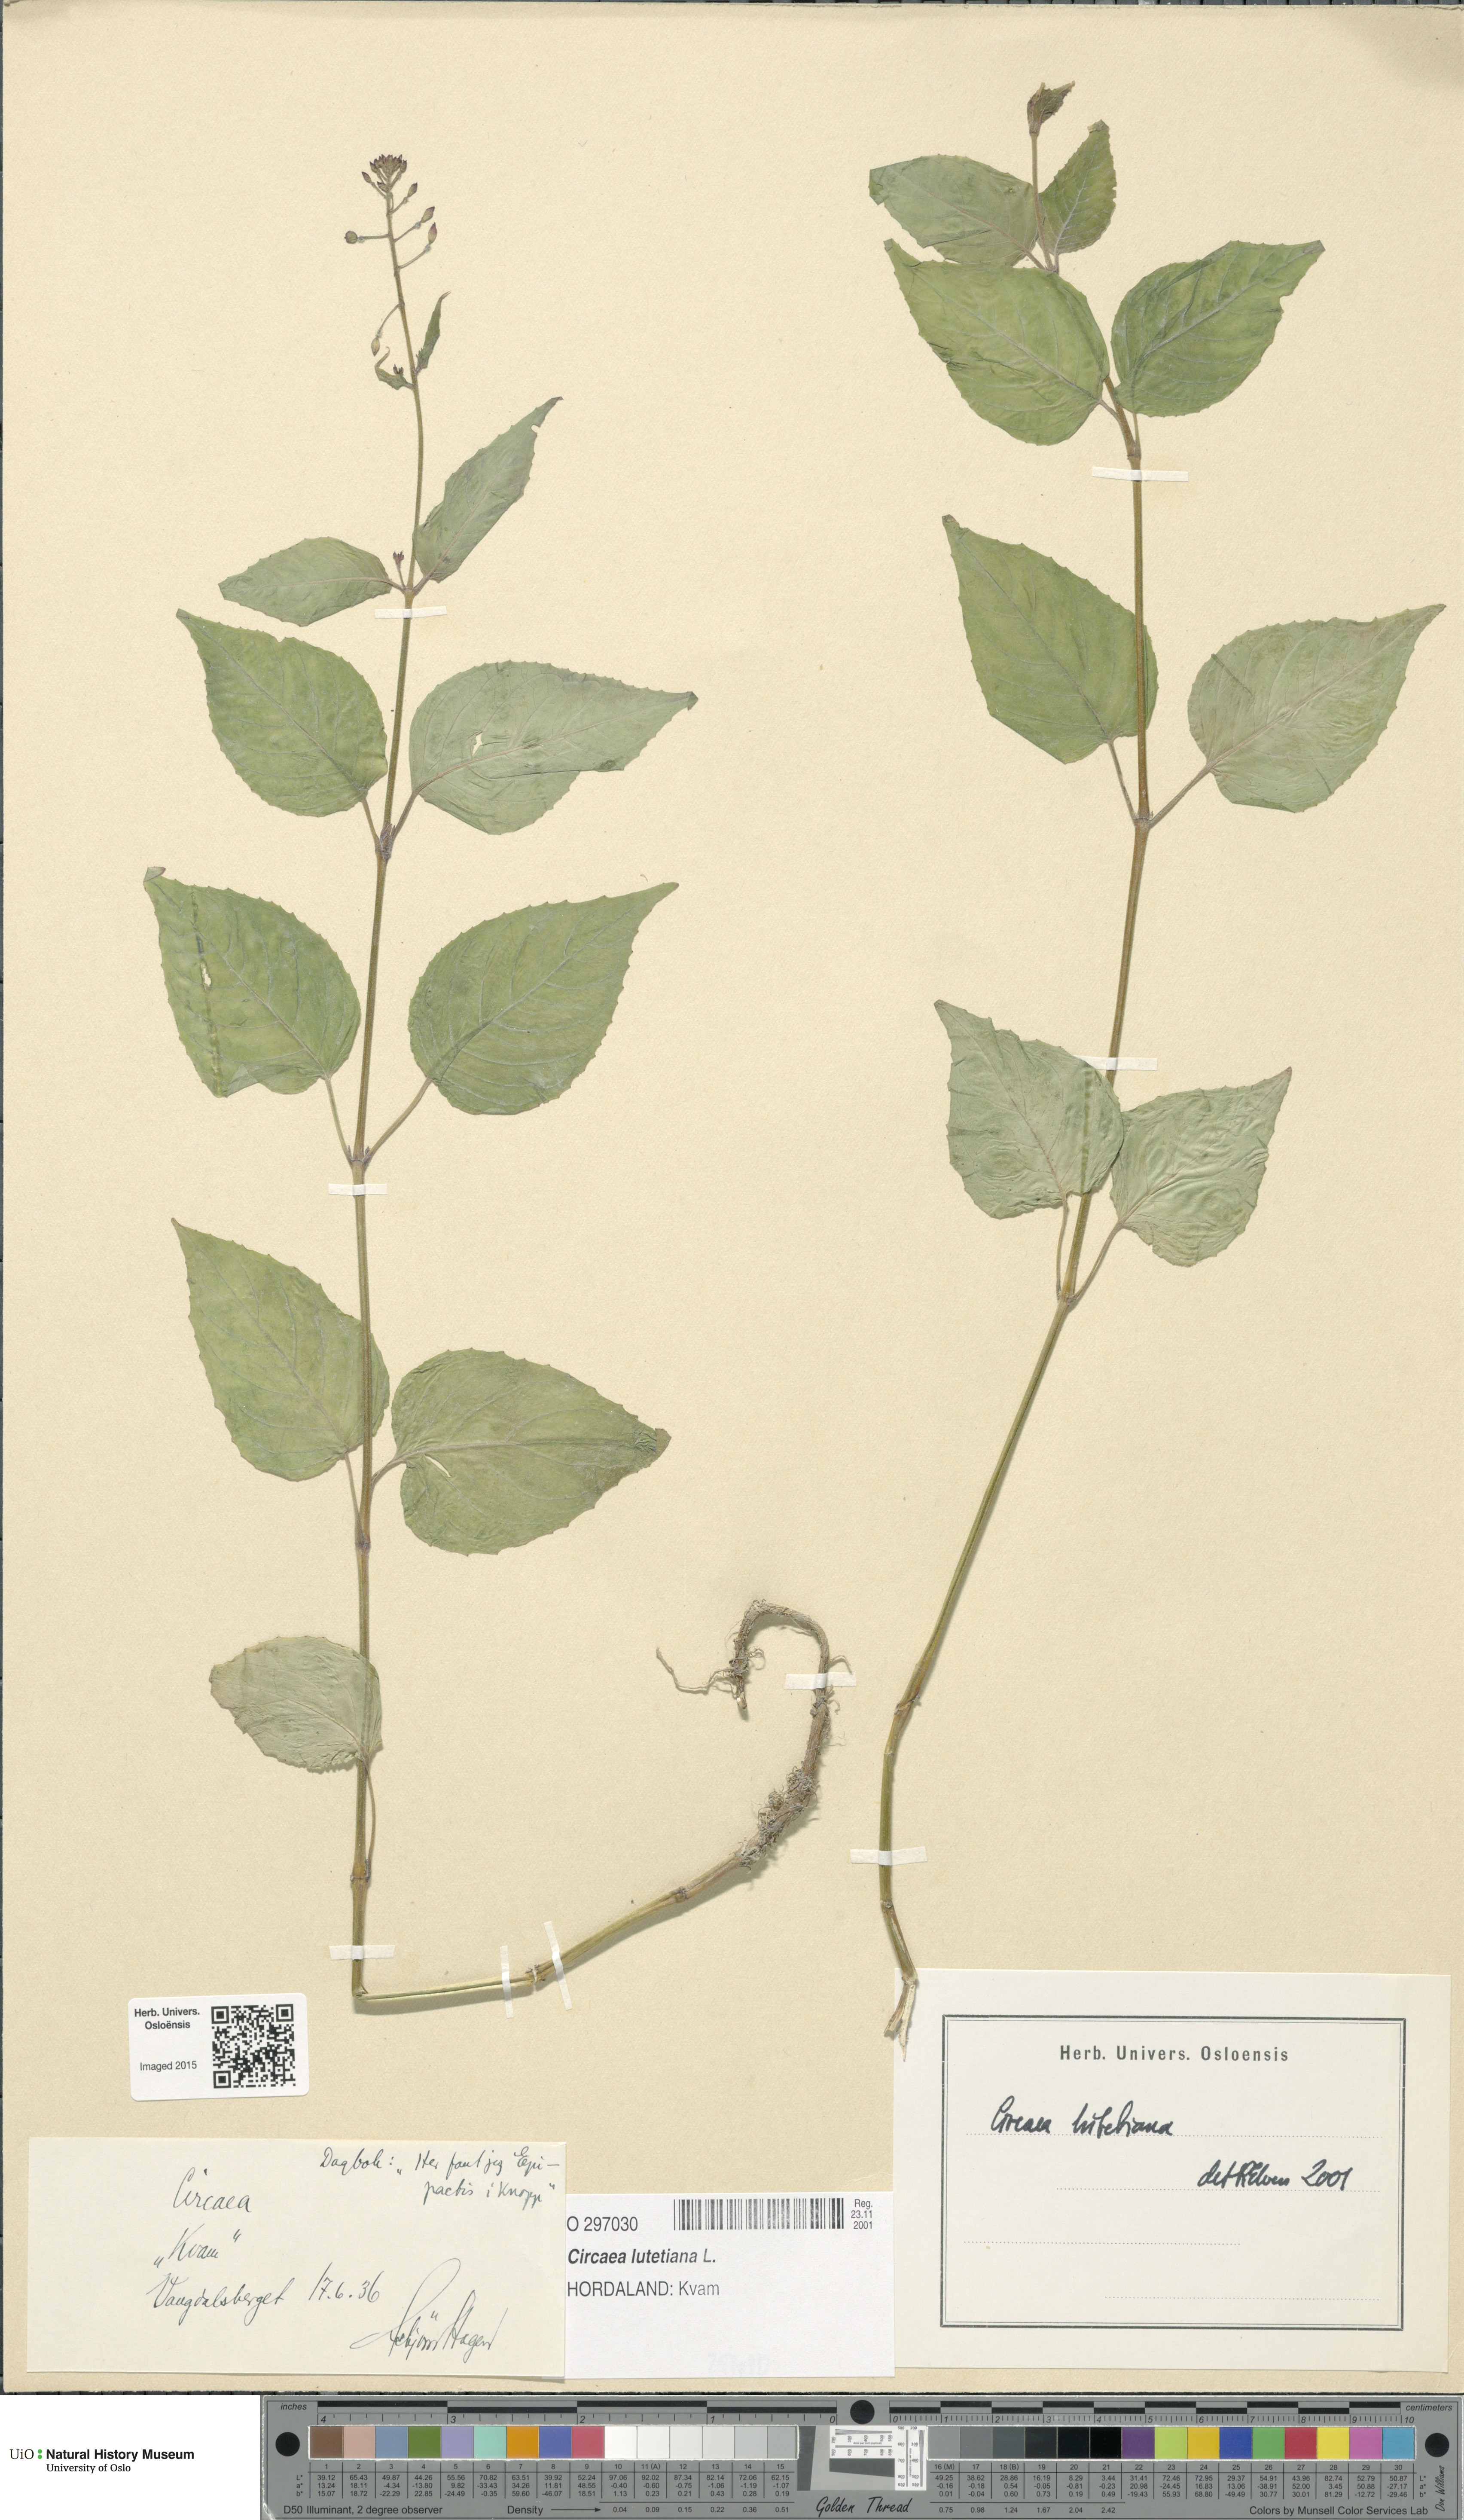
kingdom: Plantae
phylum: Tracheophyta
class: Magnoliopsida
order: Myrtales
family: Onagraceae
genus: Circaea
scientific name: Circaea lutetiana
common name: Enchanter's-nightshade
